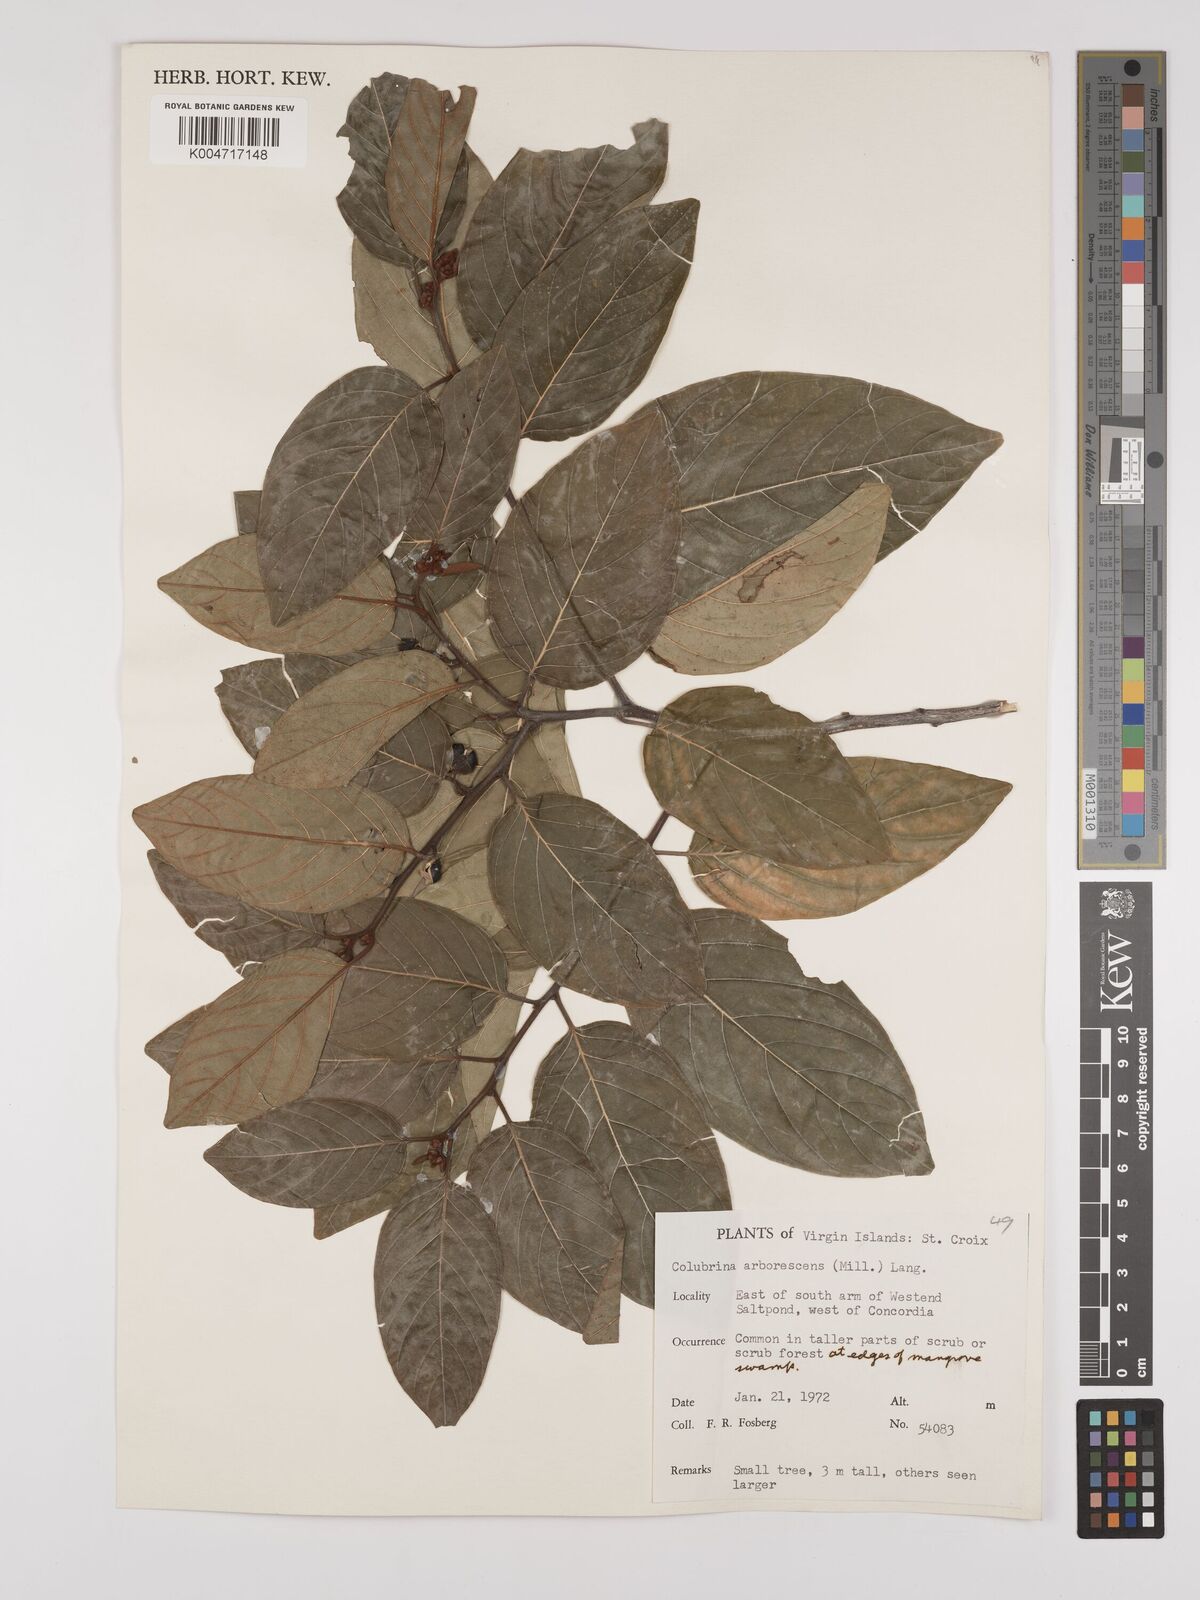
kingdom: Plantae
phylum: Tracheophyta
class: Magnoliopsida
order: Rosales
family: Rhamnaceae
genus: Colubrina
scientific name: Colubrina arborescens
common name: Wild coffee
